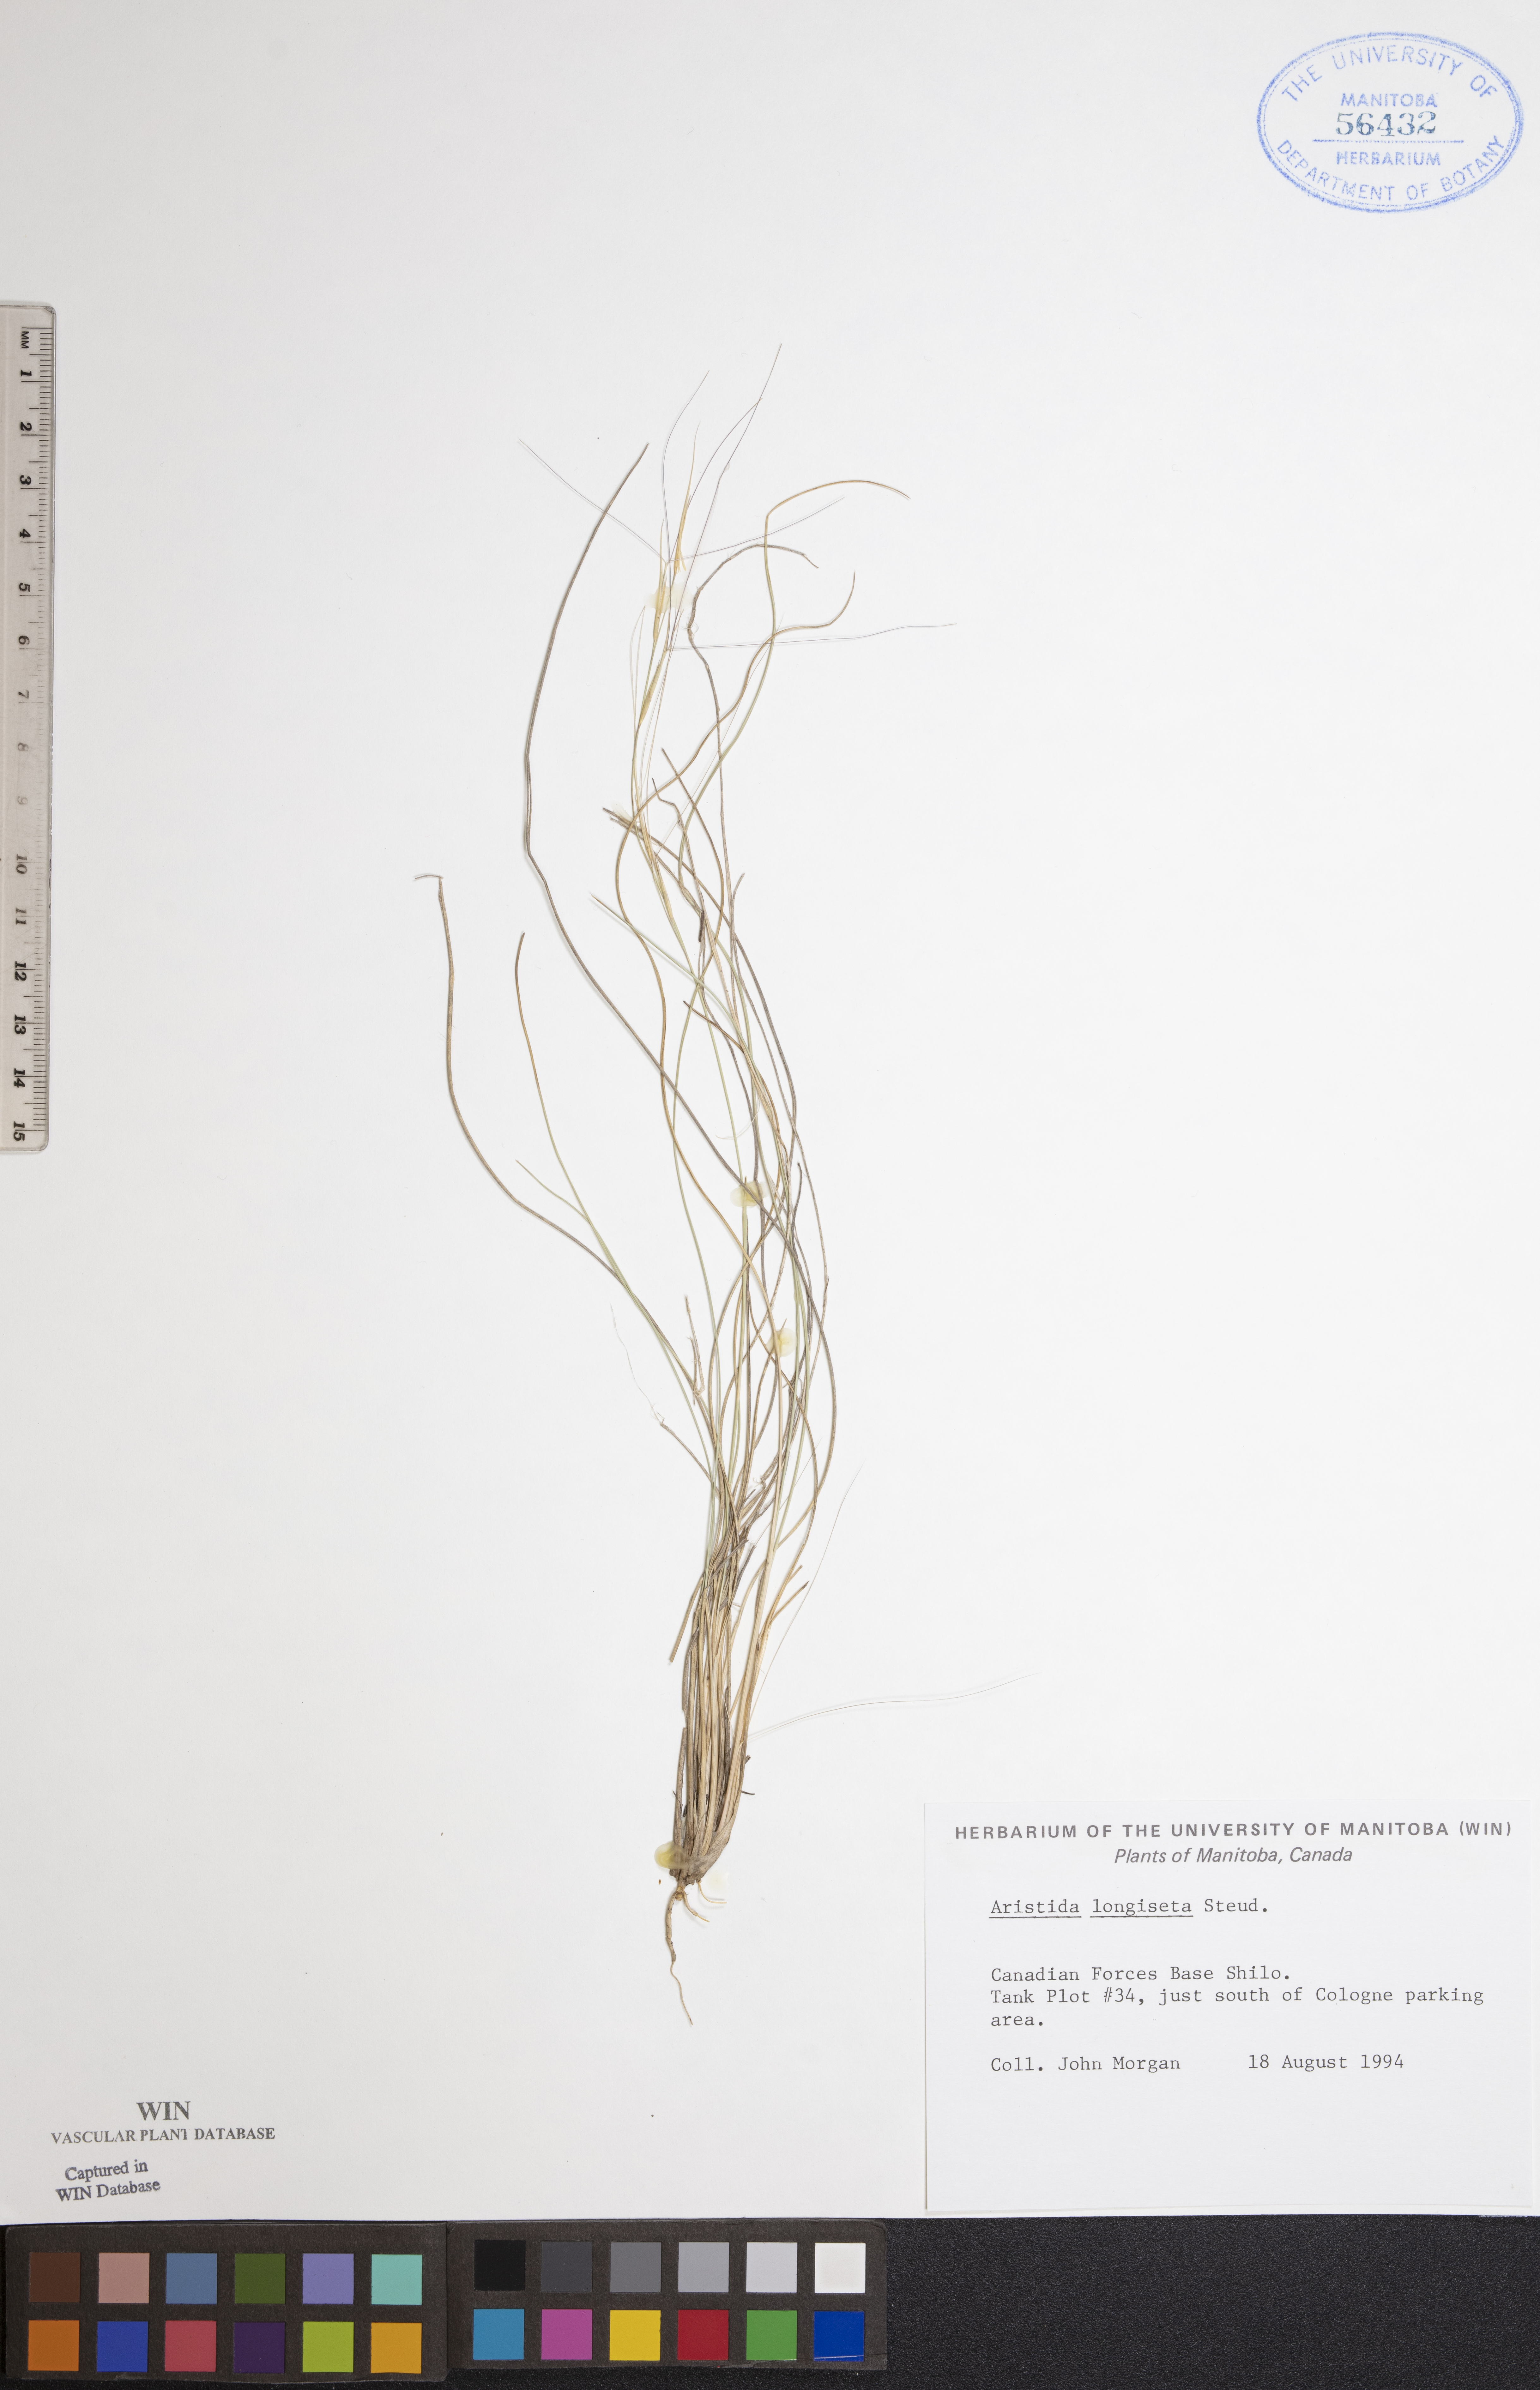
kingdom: Plantae
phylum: Tracheophyta
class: Liliopsida
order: Poales
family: Poaceae
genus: Aristida
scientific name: Aristida longiseta
